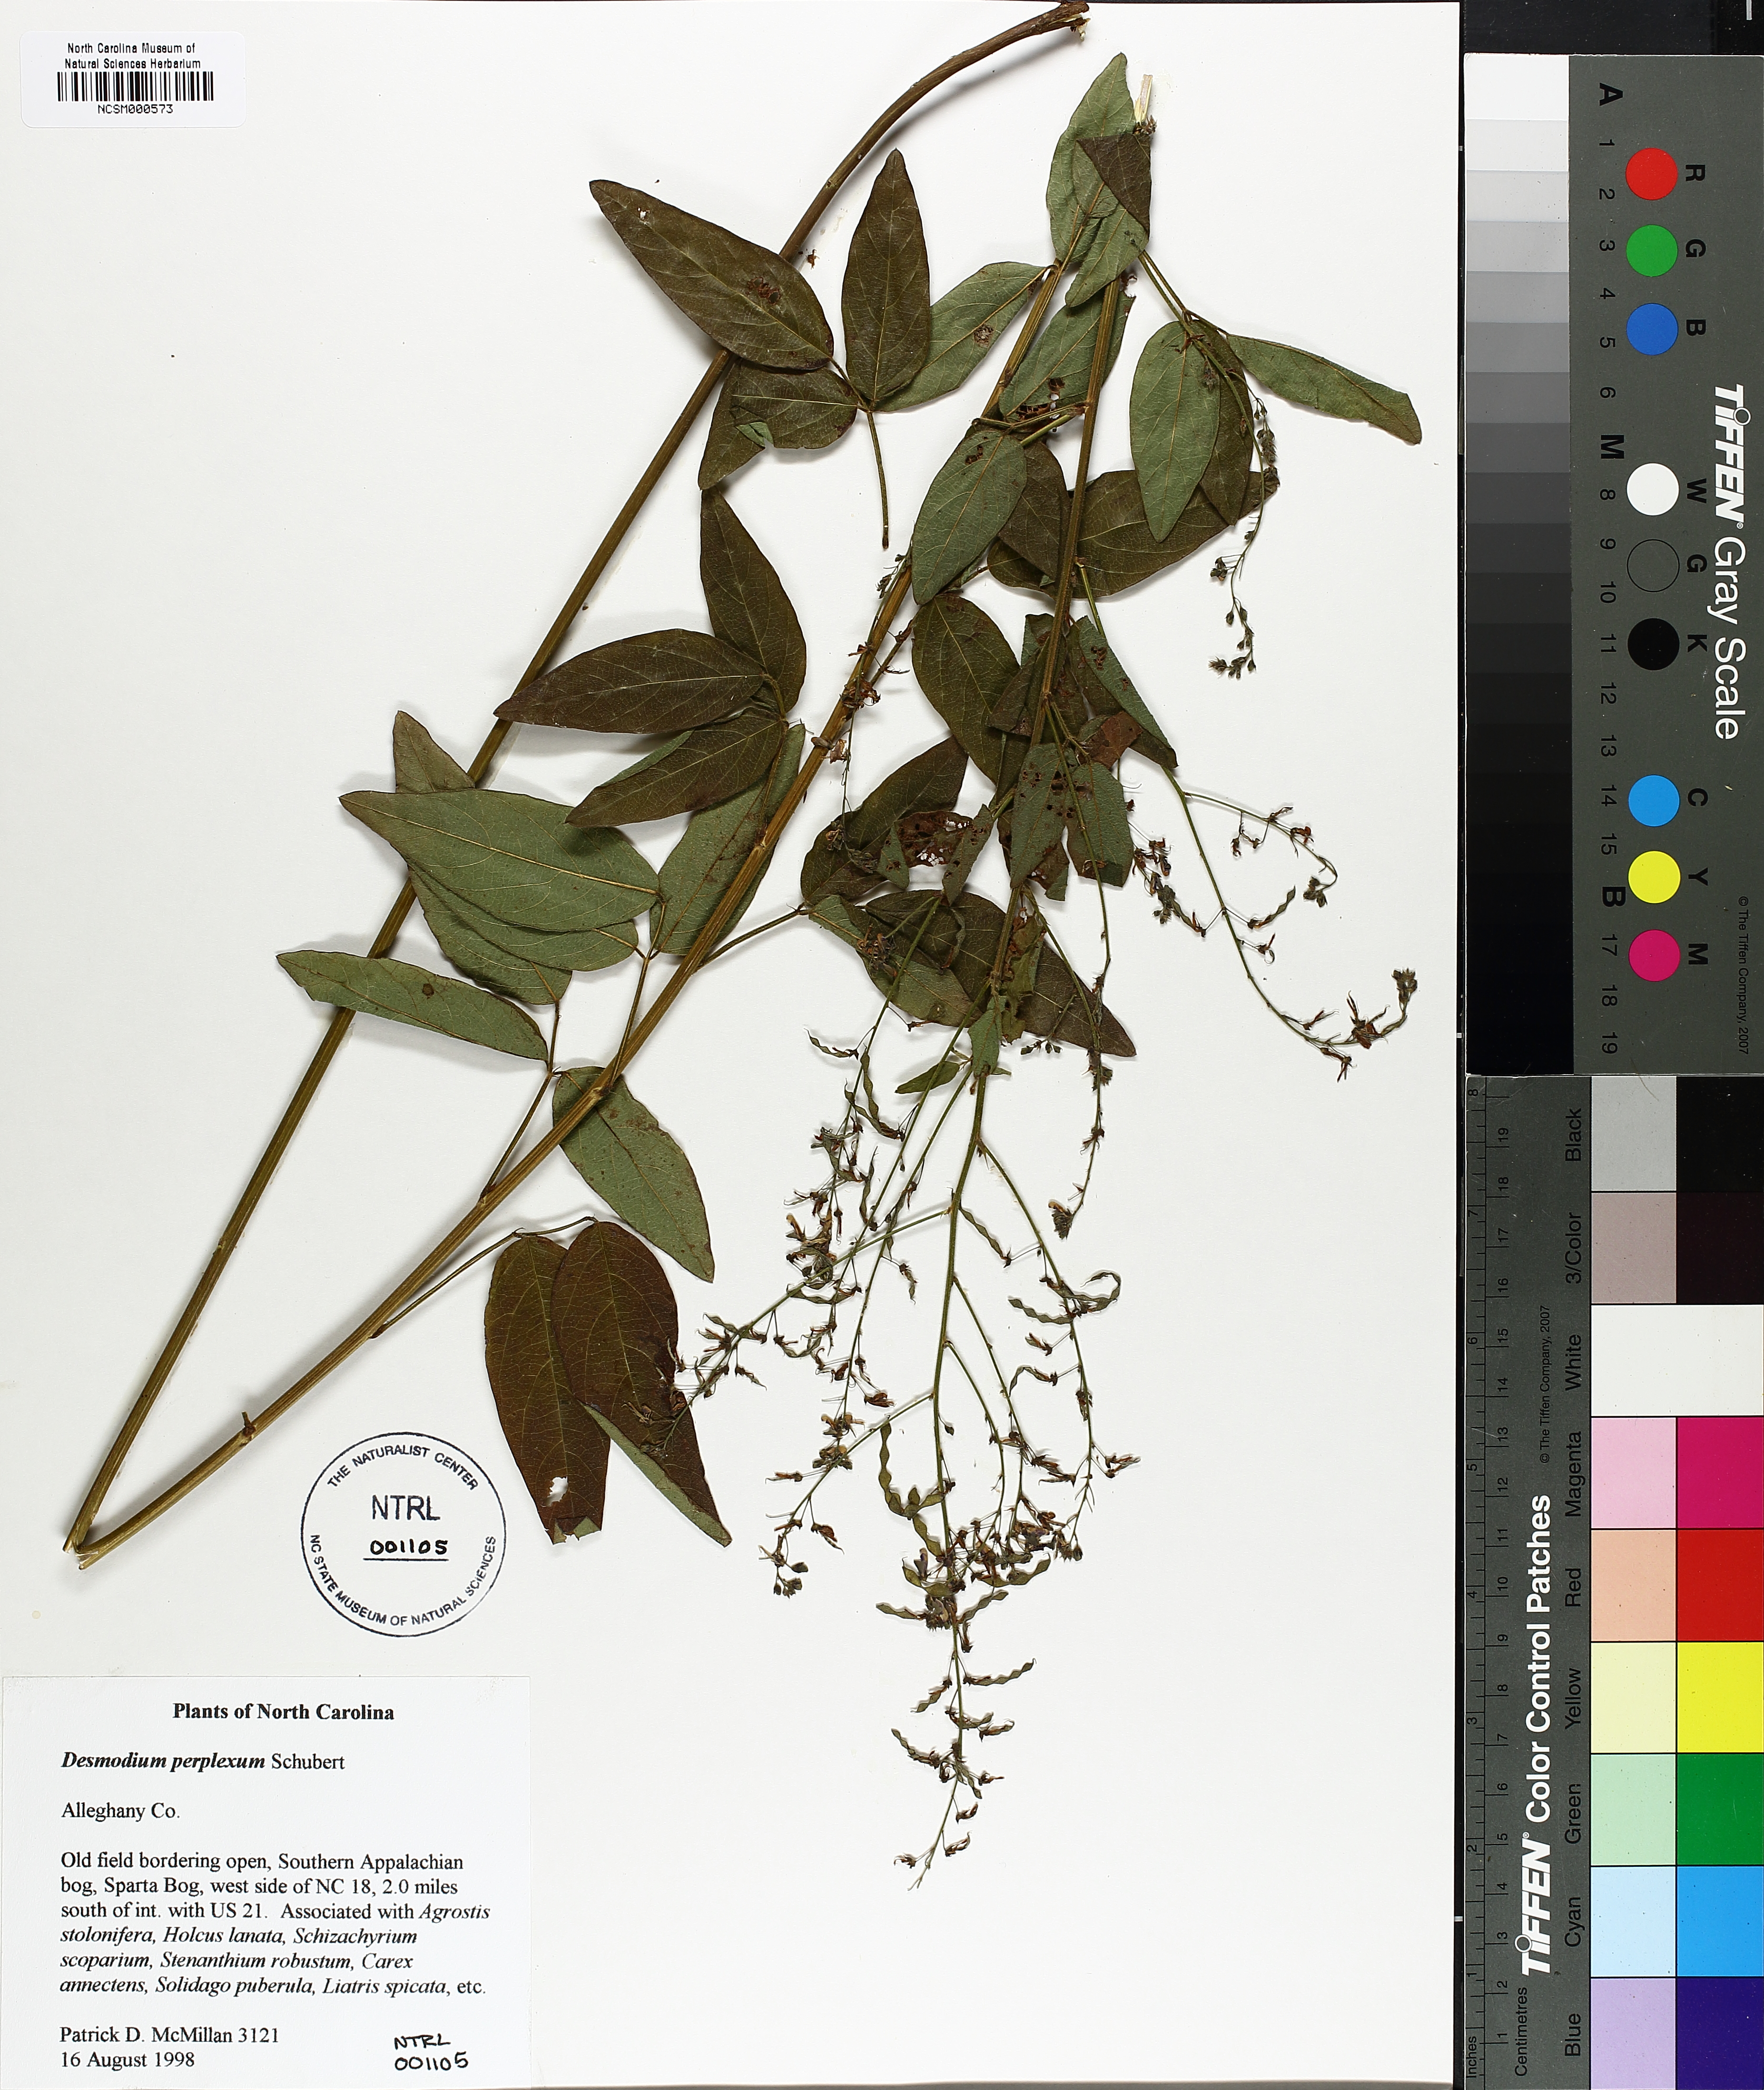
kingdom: Plantae
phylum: Tracheophyta
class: Magnoliopsida
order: Fabales
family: Fabaceae
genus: Desmodium
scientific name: Desmodium perplexum
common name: Perplexed tick trefoil
